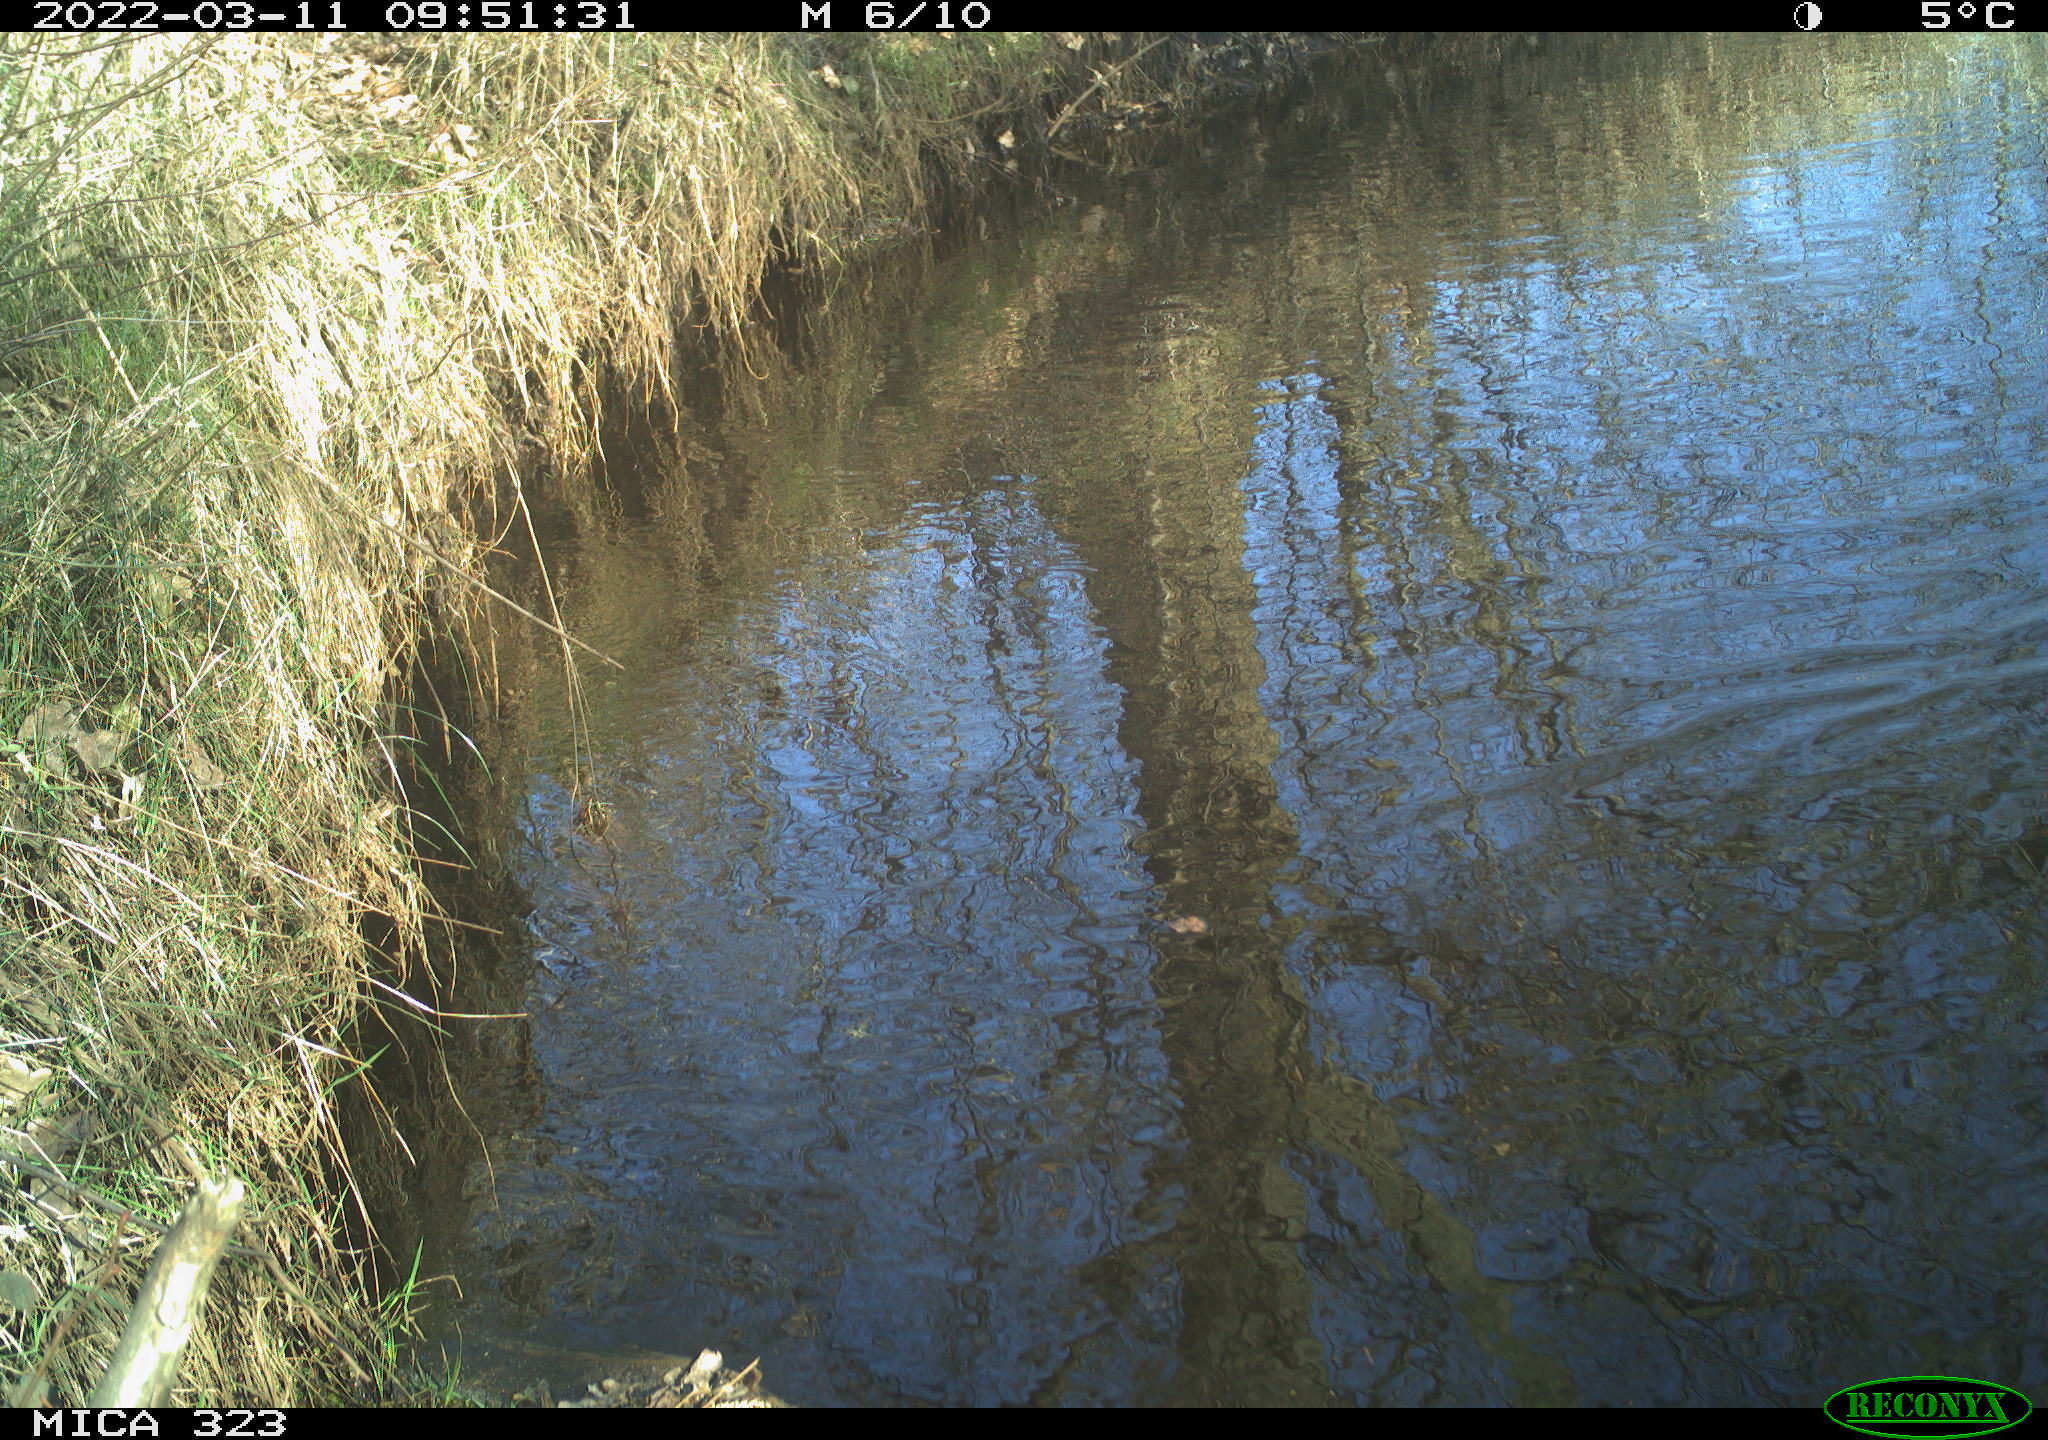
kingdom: Animalia
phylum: Chordata
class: Aves
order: Anseriformes
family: Anatidae
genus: Anas
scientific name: Anas
